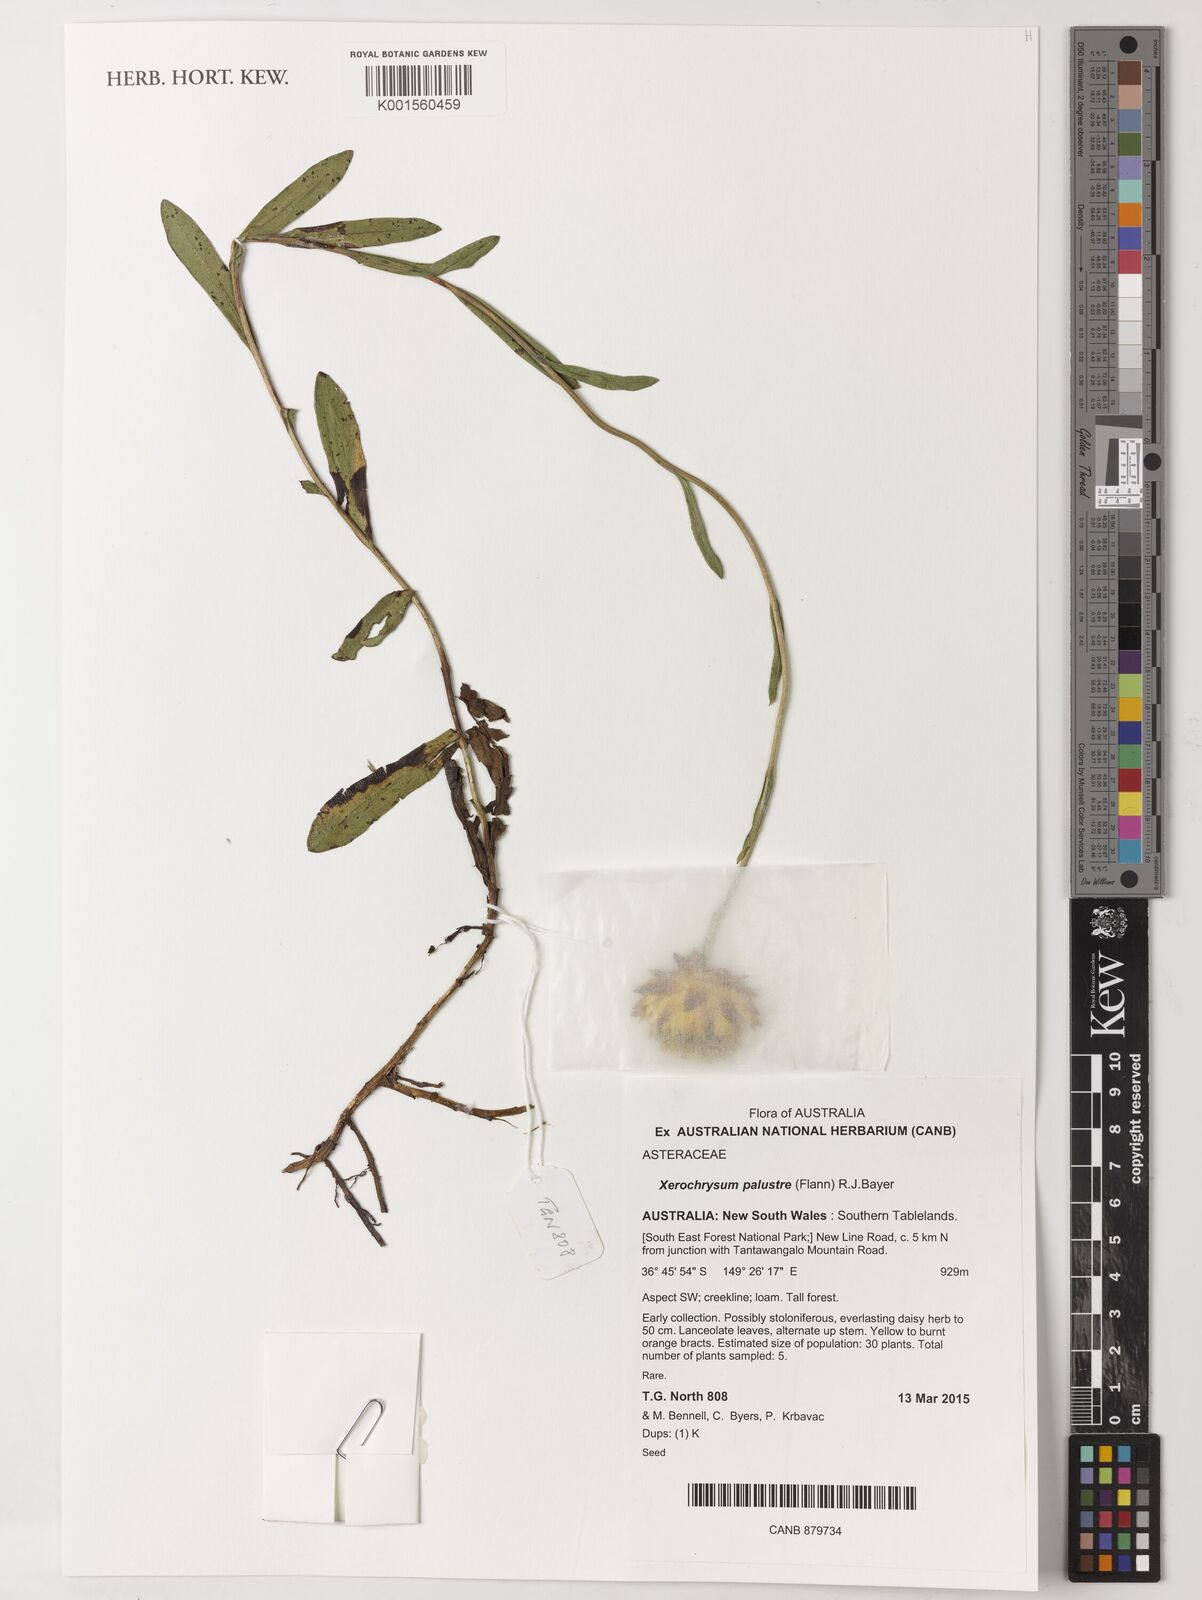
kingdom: Plantae
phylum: Tracheophyta
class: Magnoliopsida
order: Asterales
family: Asteraceae
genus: Xerochrysum
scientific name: Xerochrysum palustre
